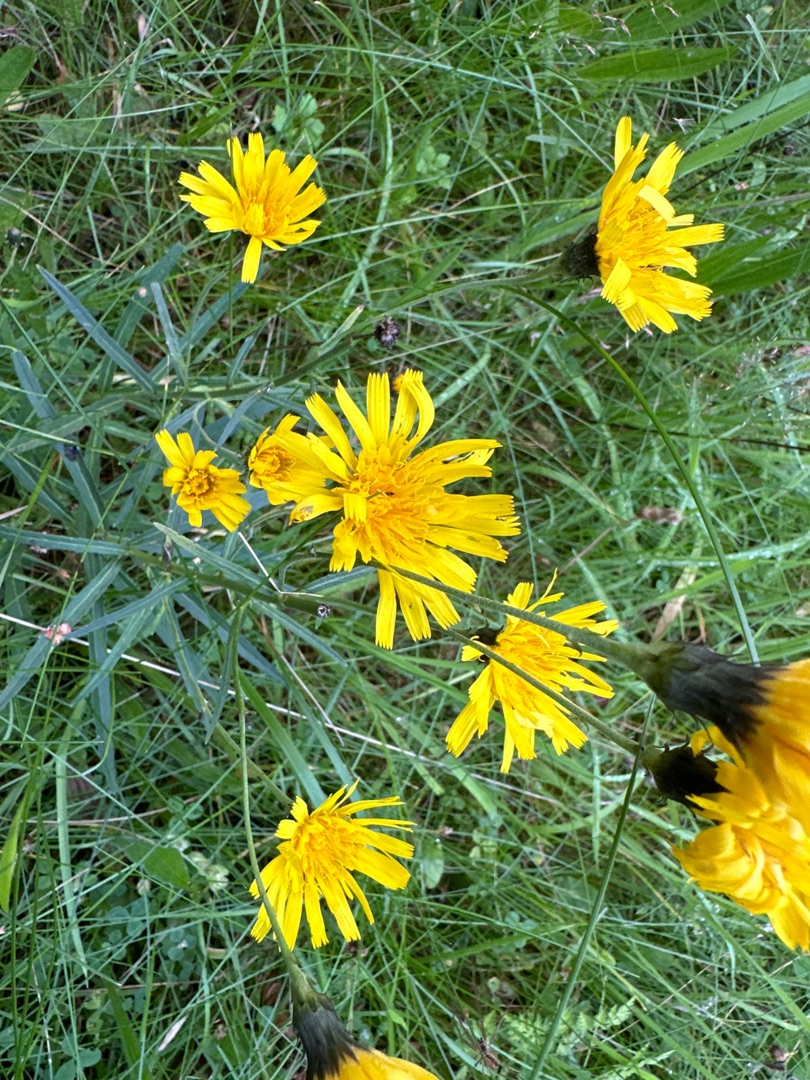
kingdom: Plantae
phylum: Tracheophyta
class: Magnoliopsida
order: Asterales
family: Asteraceae
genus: Hieracium
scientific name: Hieracium umbellatum
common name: Smalbladet høgeurt
